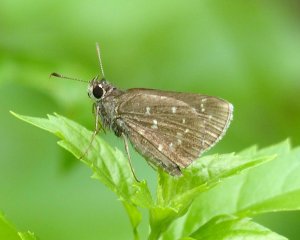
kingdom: Animalia
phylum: Arthropoda
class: Insecta
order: Lepidoptera
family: Hesperiidae
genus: Mastor
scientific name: Mastor celia
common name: Celia's Roadside-Skipper
